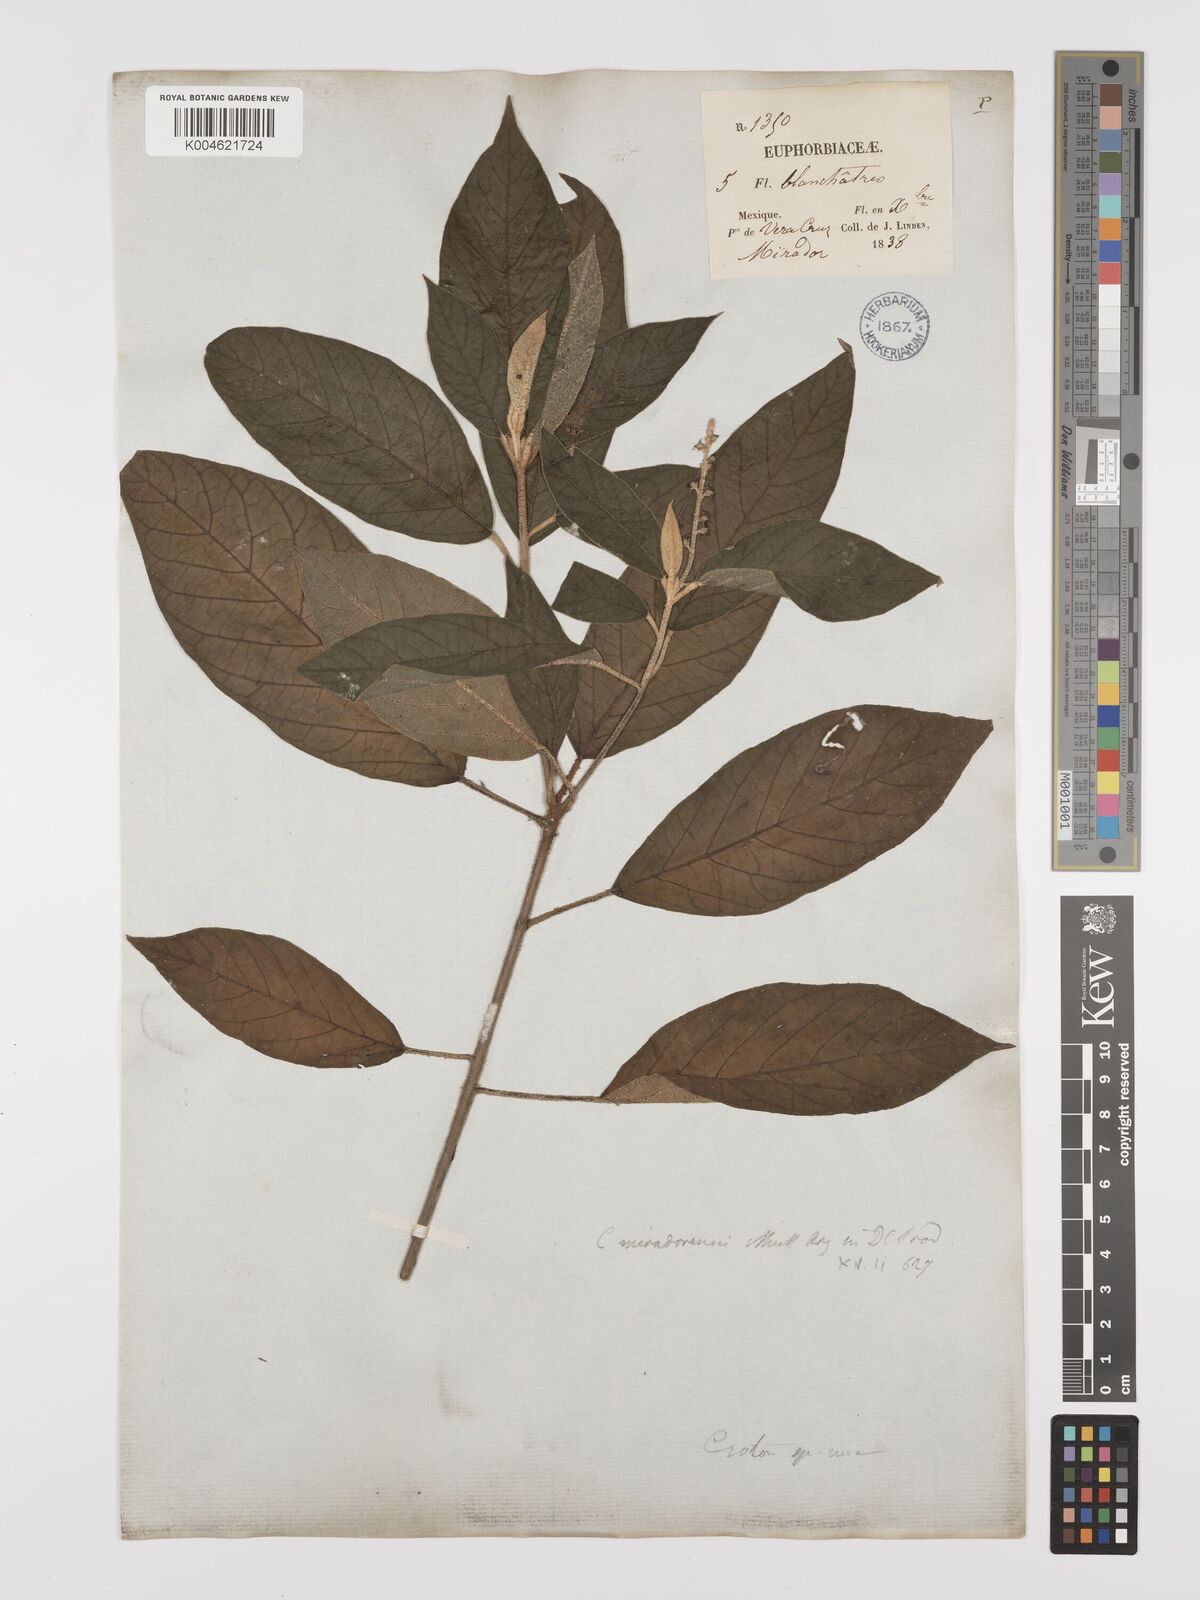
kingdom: Plantae
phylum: Tracheophyta
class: Magnoliopsida
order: Malpighiales
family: Euphorbiaceae
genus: Croton
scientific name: Croton miradorensis
